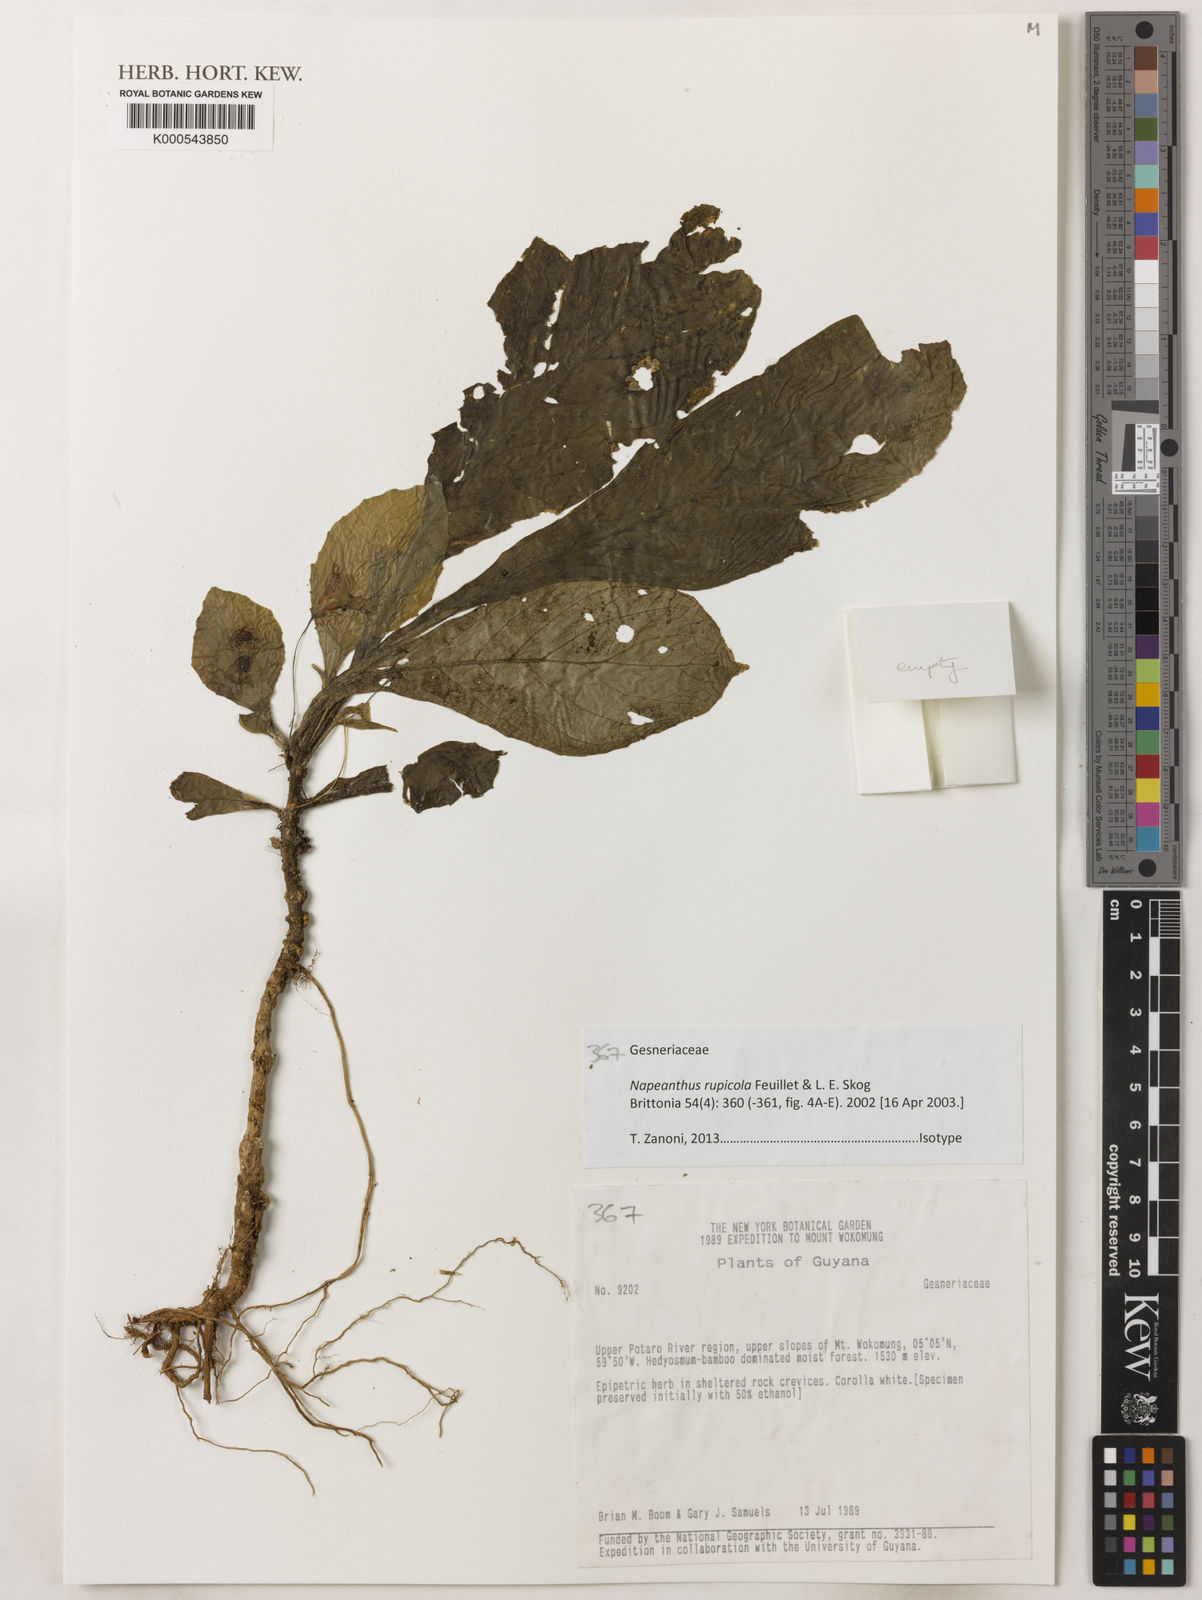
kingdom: Plantae
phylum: Tracheophyta
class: Magnoliopsida
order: Lamiales
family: Gesneriaceae
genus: Napeanthus
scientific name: Napeanthus rupicola
